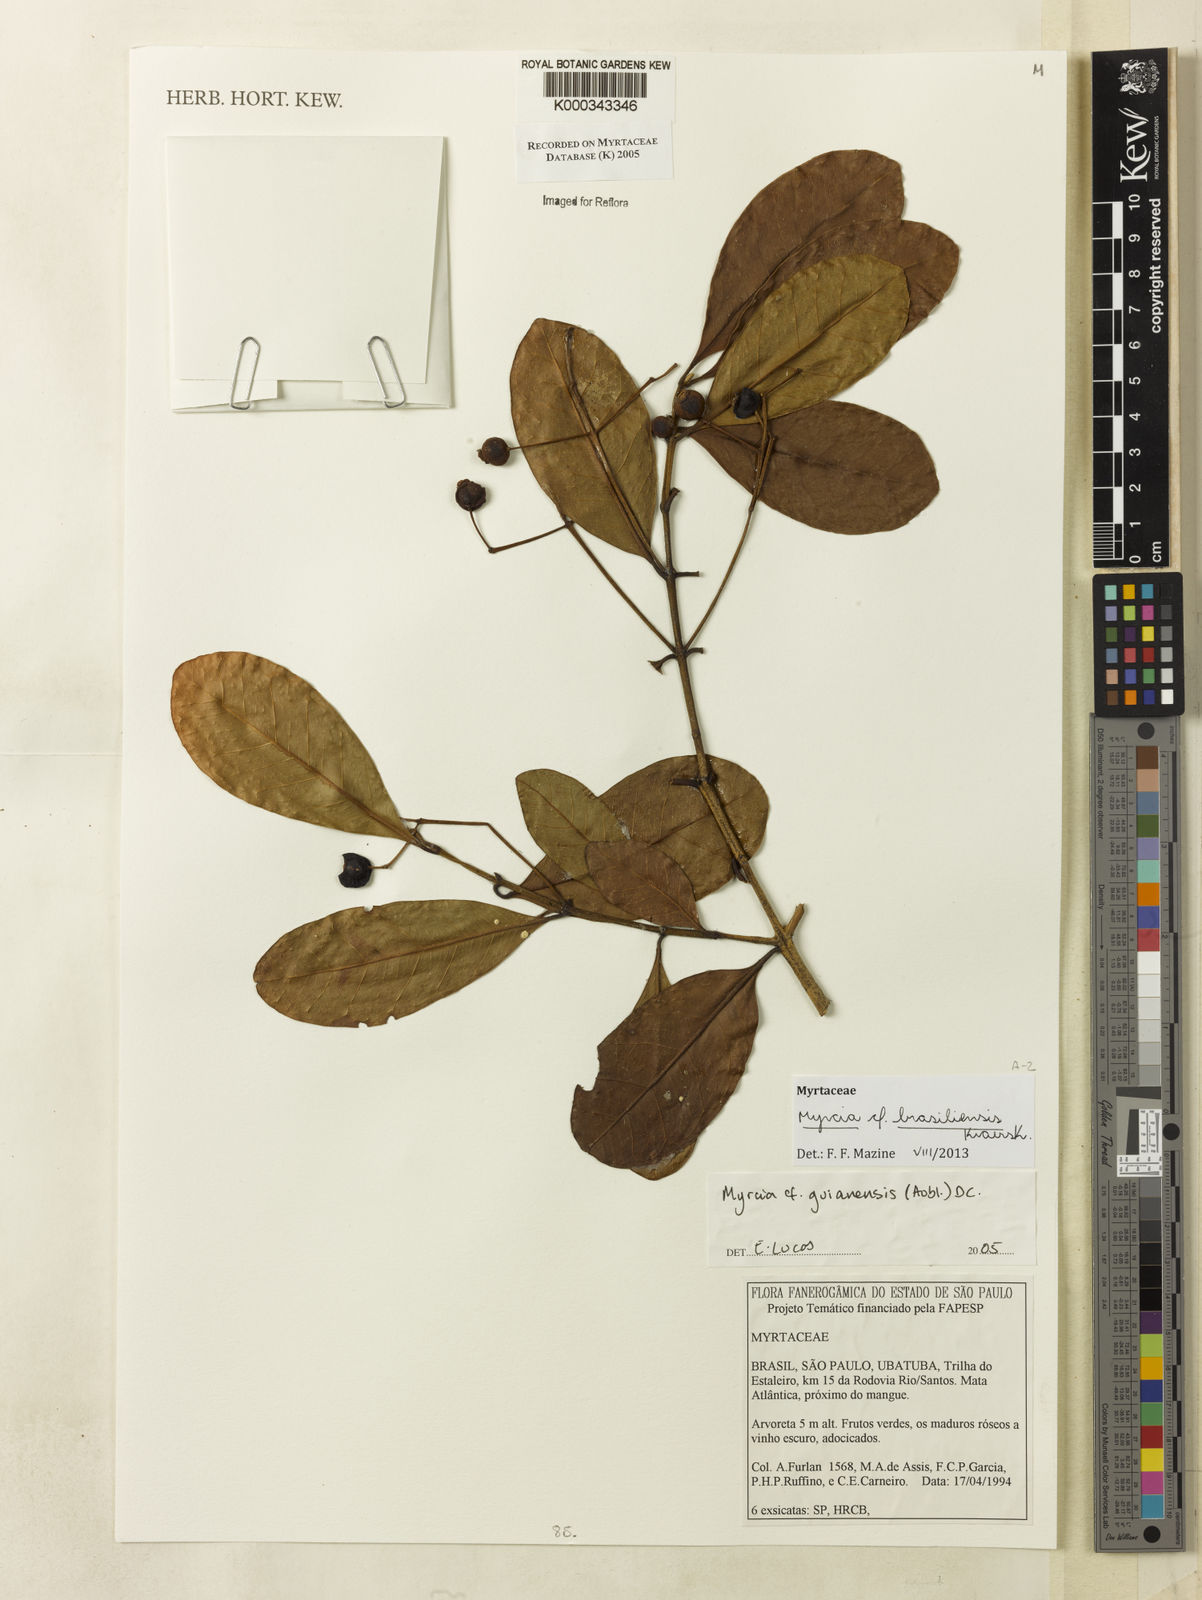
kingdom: Plantae
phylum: Tracheophyta
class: Magnoliopsida
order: Myrtales
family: Myrtaceae
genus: Myrcia
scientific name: Myrcia guianensis
